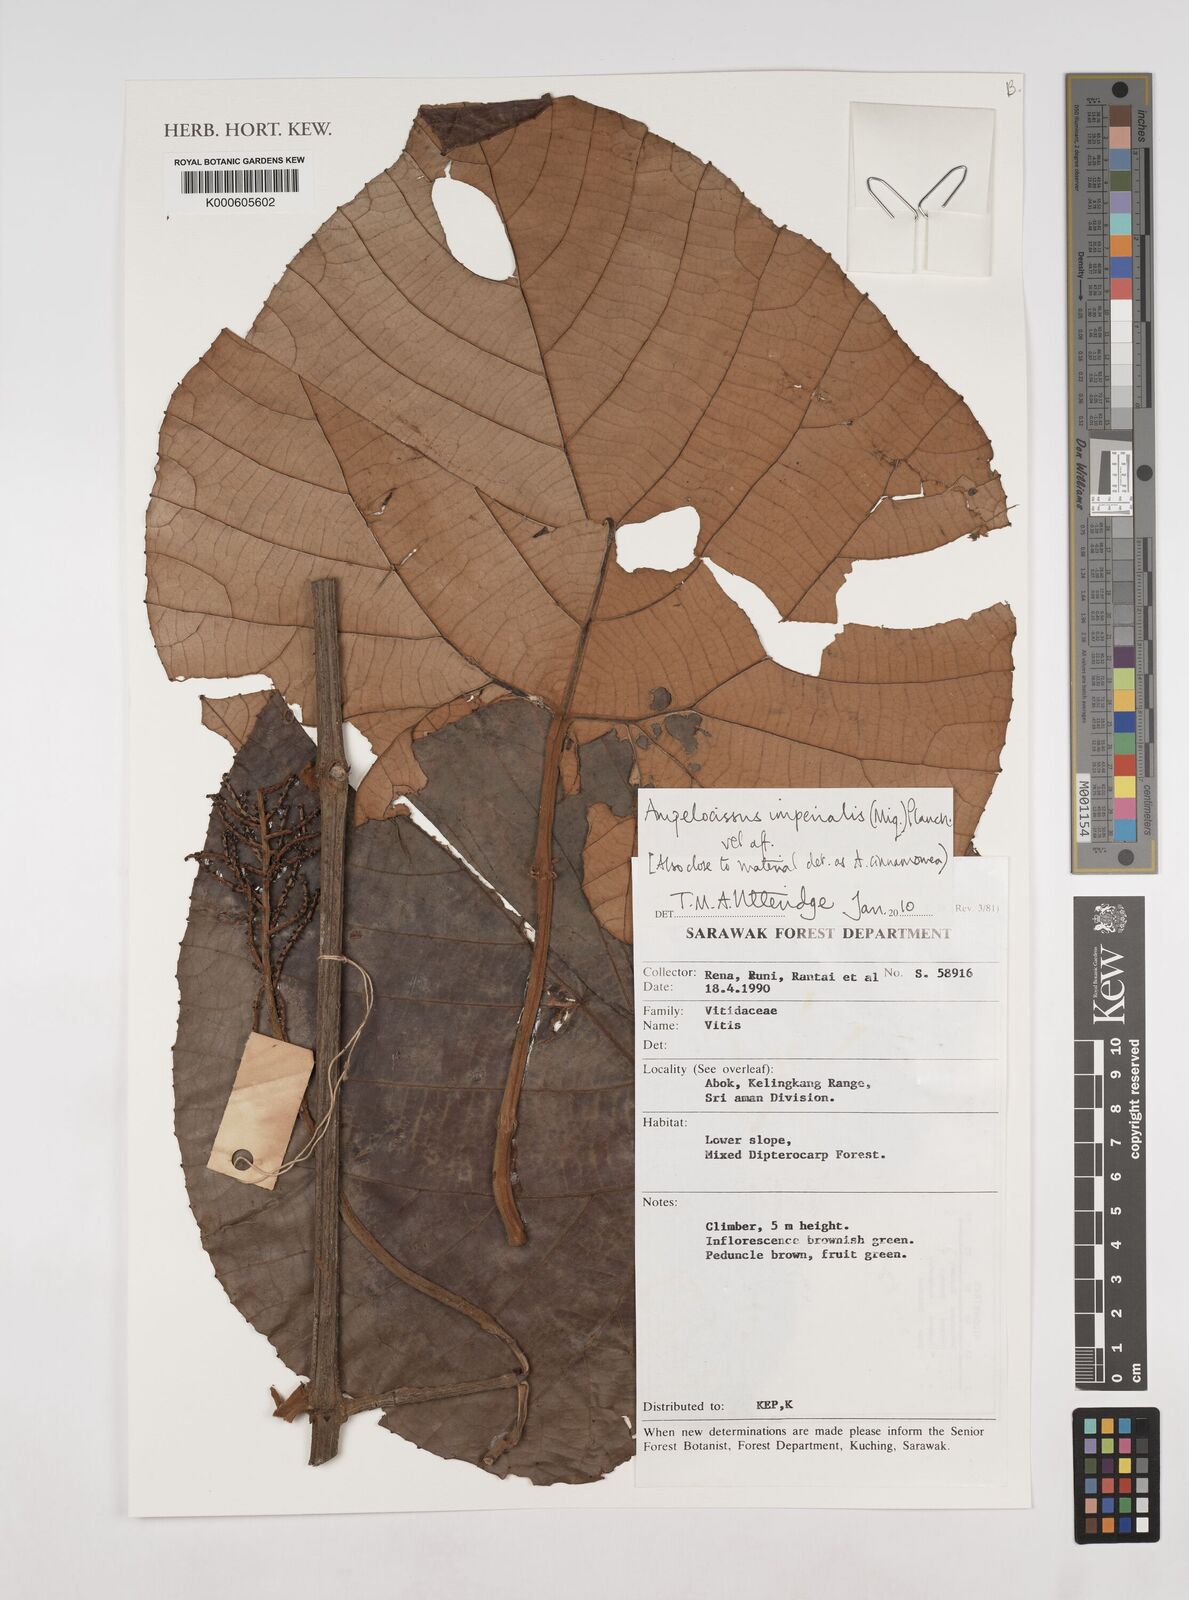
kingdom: Plantae
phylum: Tracheophyta
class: Magnoliopsida
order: Vitales
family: Vitaceae
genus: Ampelocissus
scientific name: Ampelocissus imperialis
